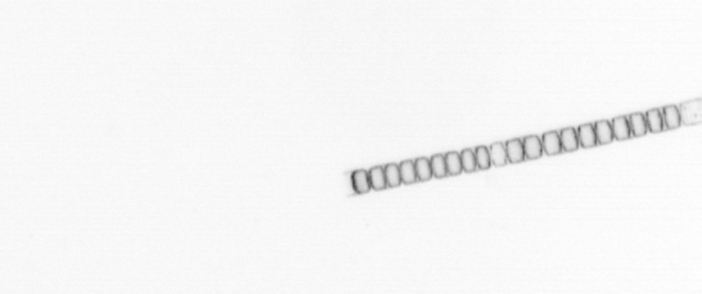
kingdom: Chromista
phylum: Ochrophyta
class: Bacillariophyceae
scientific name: Bacillariophyceae
